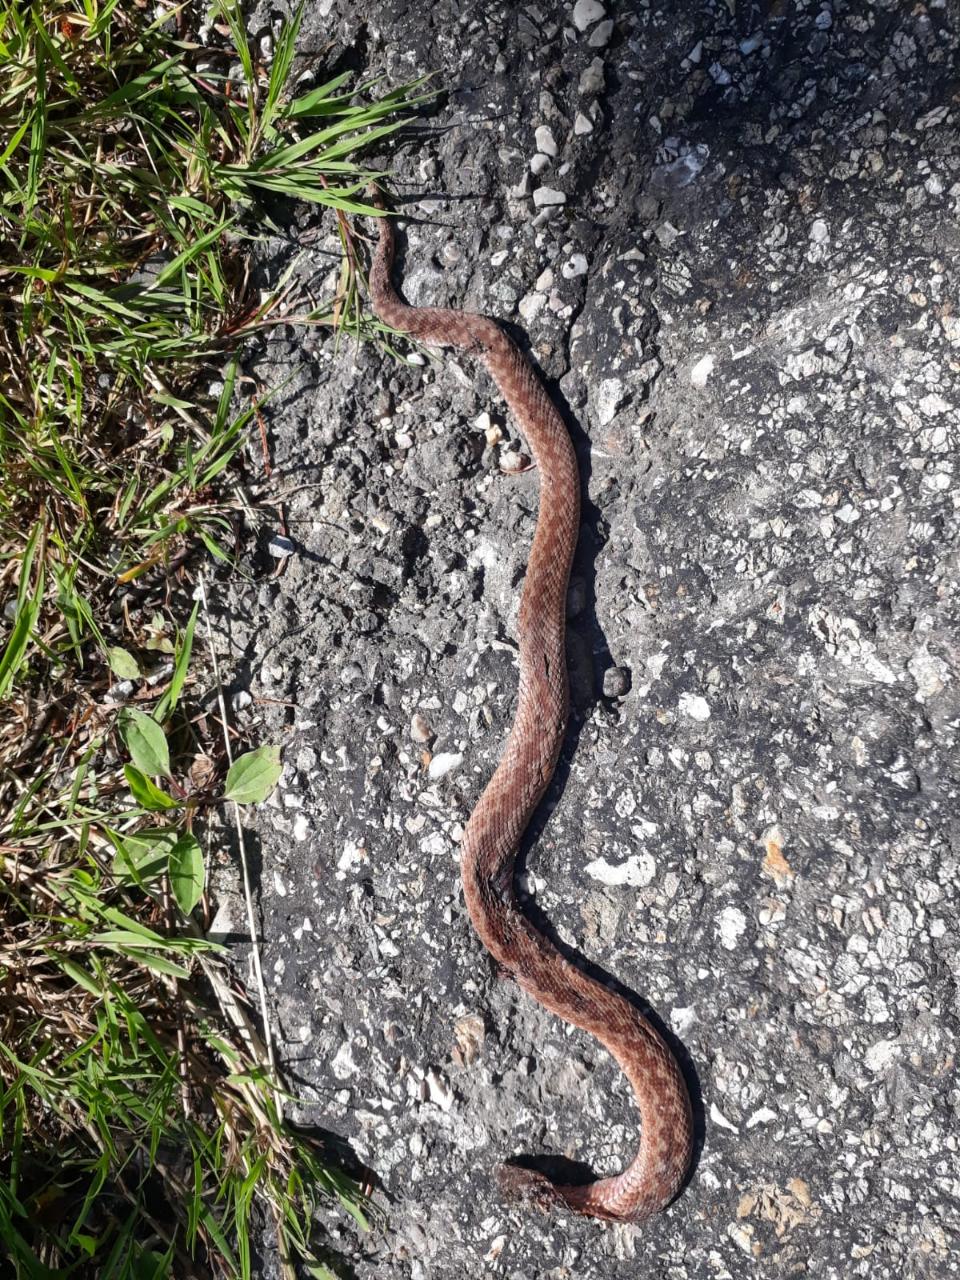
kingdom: Animalia
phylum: Chordata
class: Squamata
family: Viperidae
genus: Vipera
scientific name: Vipera berus
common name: Adder
